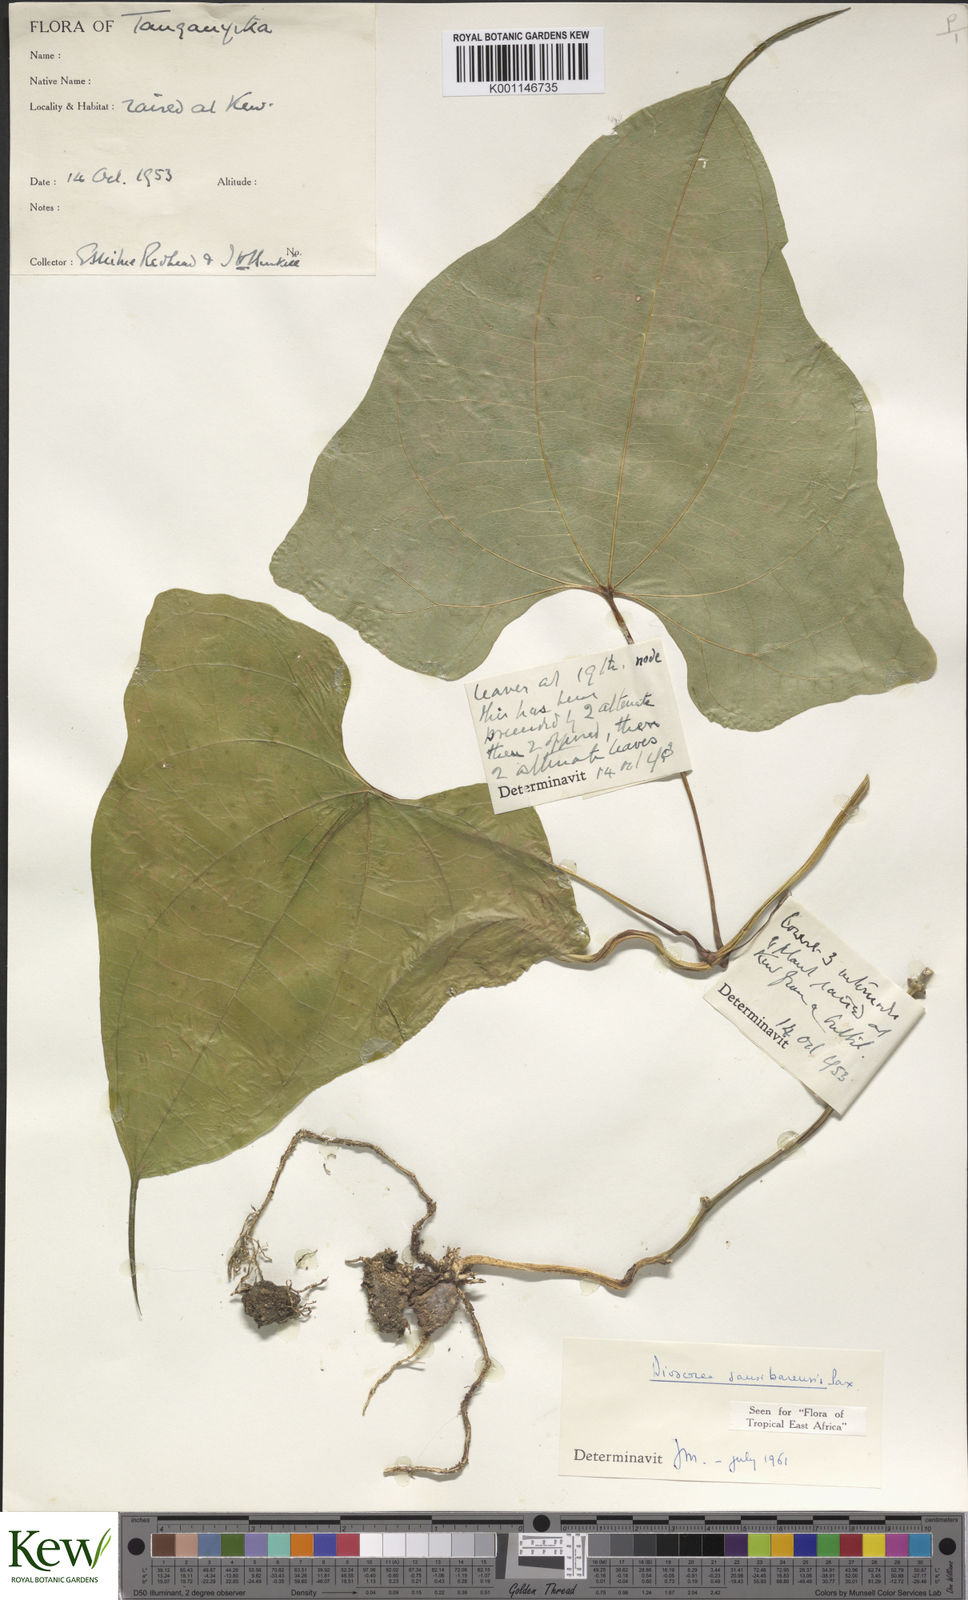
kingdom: Plantae
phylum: Tracheophyta
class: Liliopsida
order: Dioscoreales
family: Dioscoreaceae
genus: Dioscorea
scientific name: Dioscorea sansibarensis
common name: Zanzibar yam
